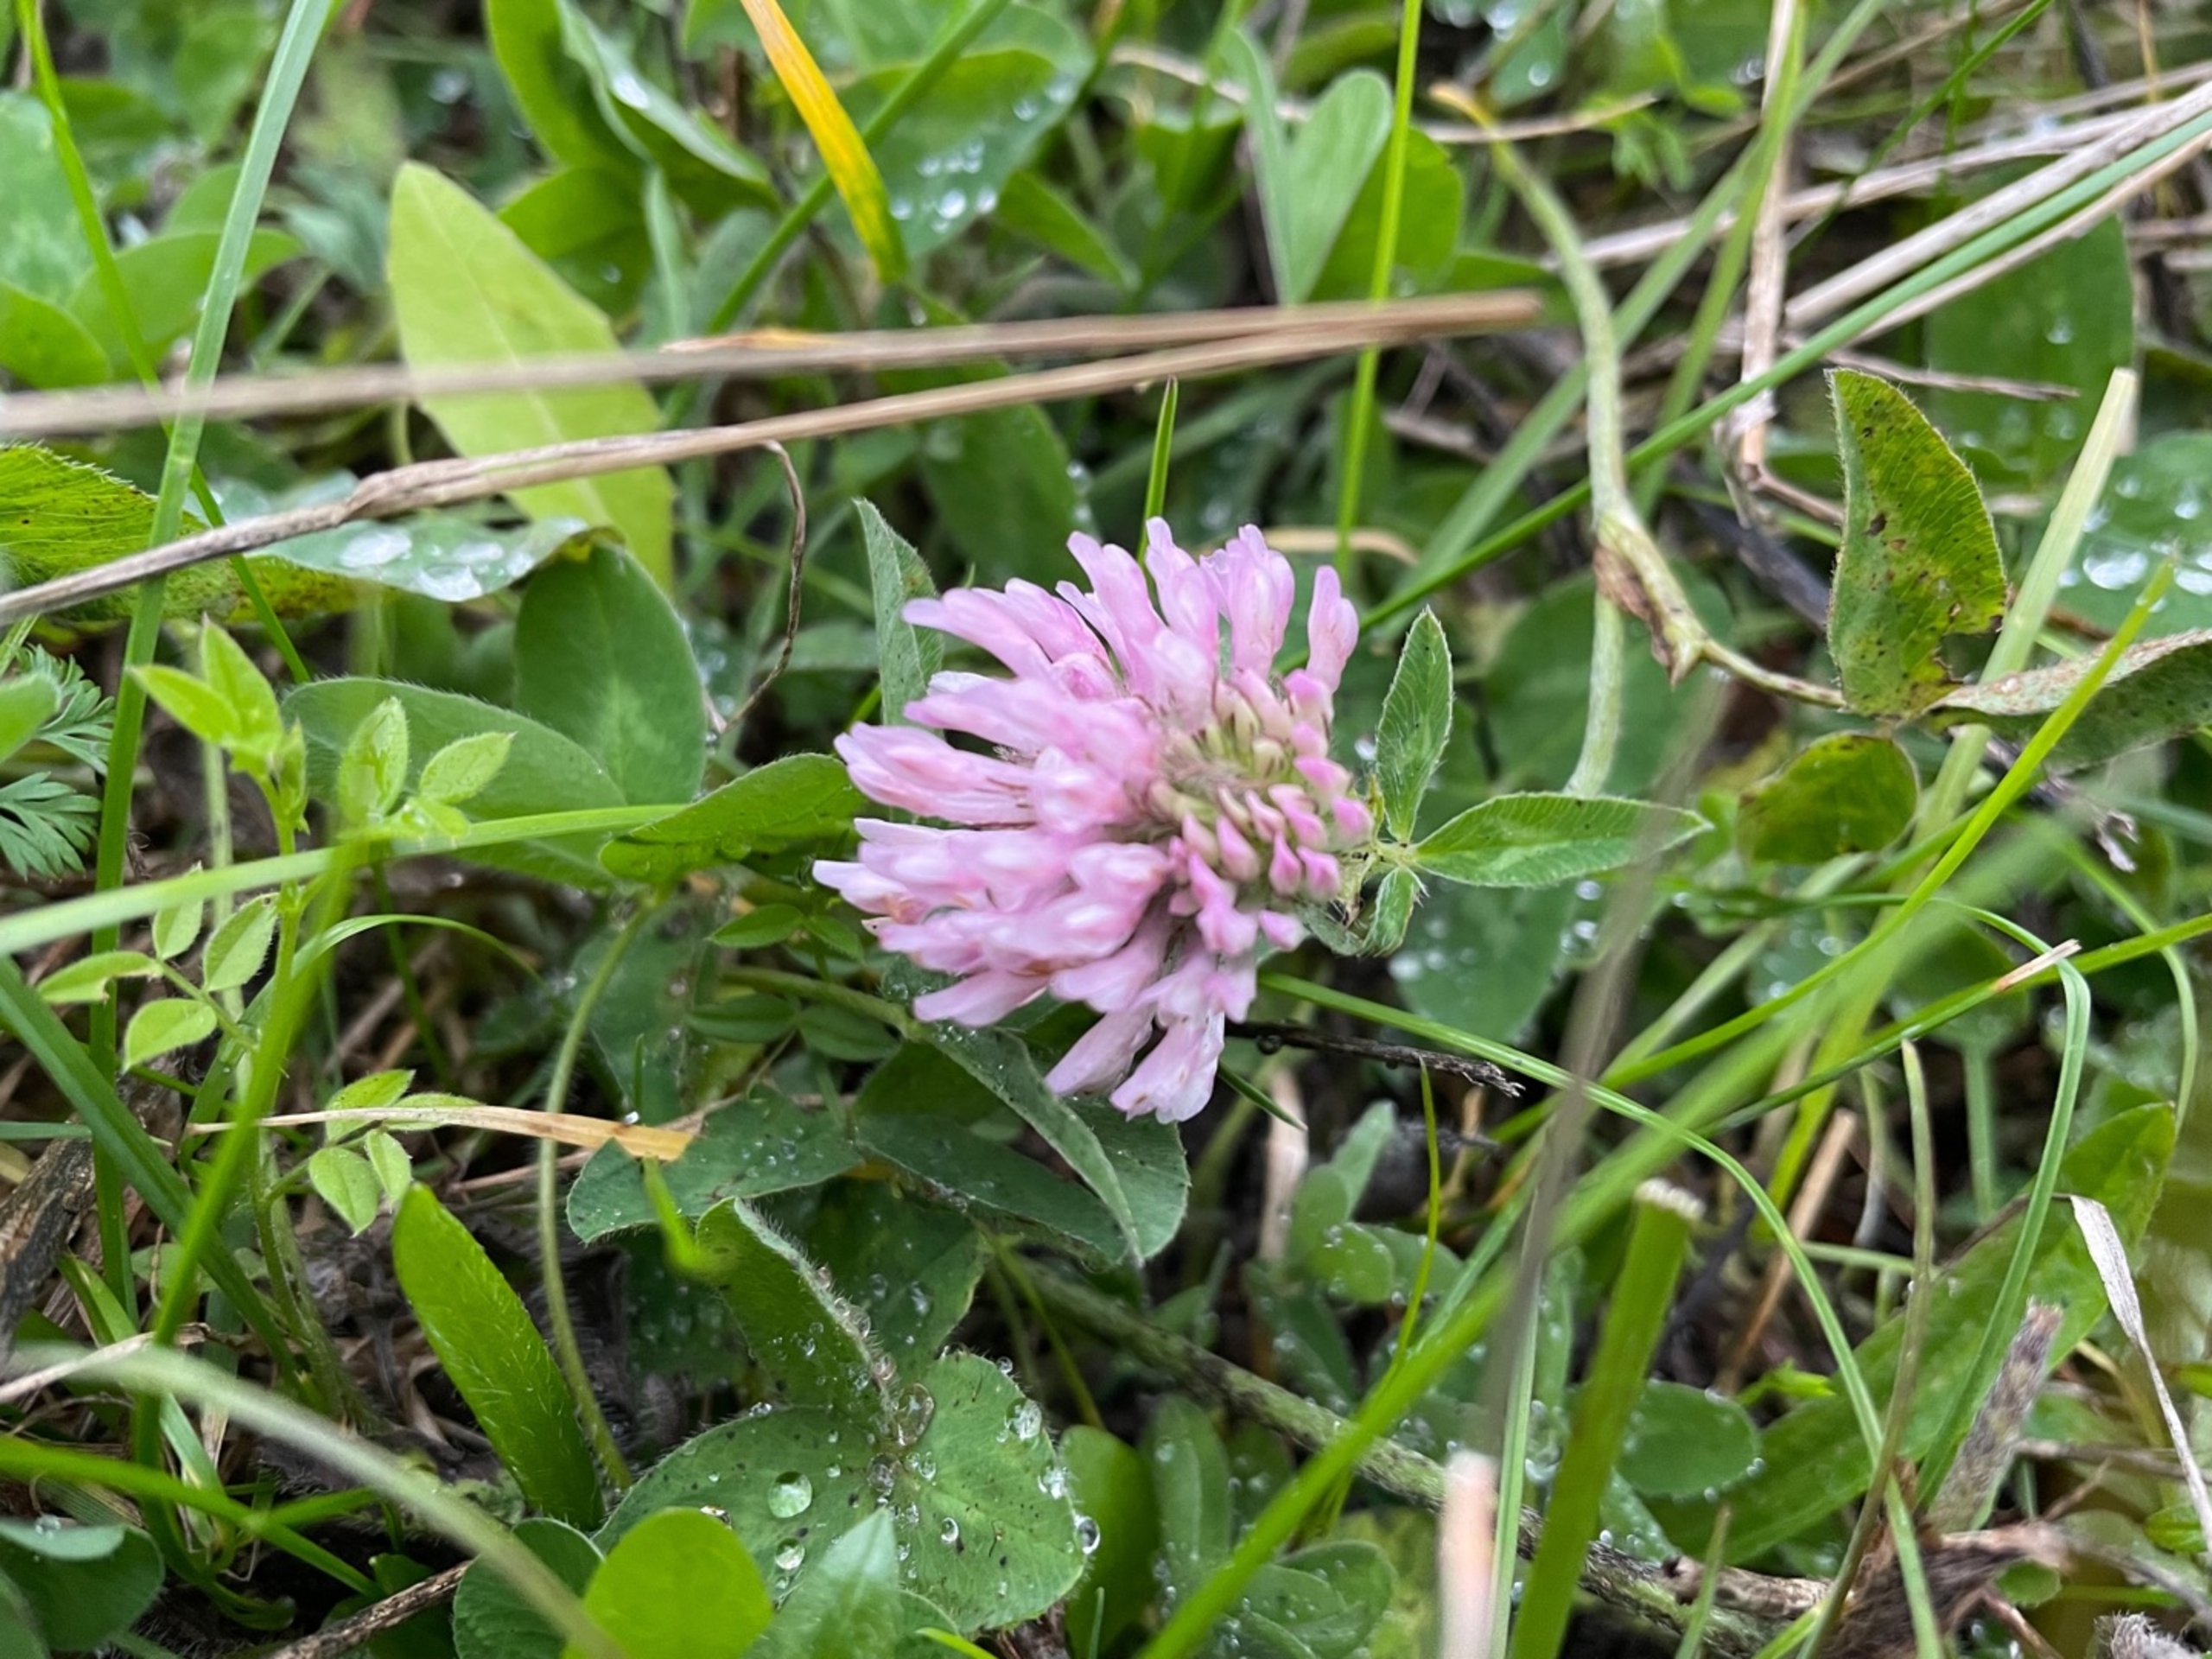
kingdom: Plantae
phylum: Tracheophyta
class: Magnoliopsida
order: Fabales
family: Fabaceae
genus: Trifolium
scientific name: Trifolium pratense
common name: Rød-kløver
